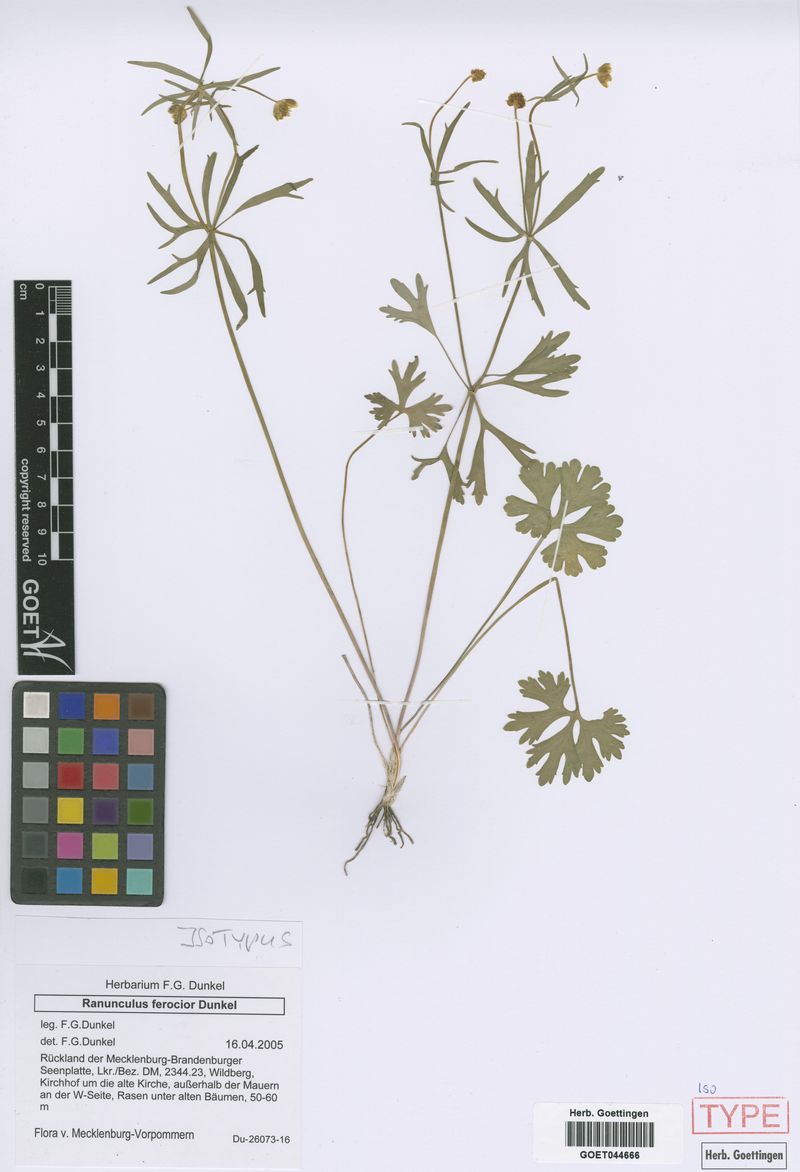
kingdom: Plantae
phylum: Tracheophyta
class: Magnoliopsida
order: Ranunculales
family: Ranunculaceae
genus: Ranunculus
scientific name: Ranunculus ferocior
